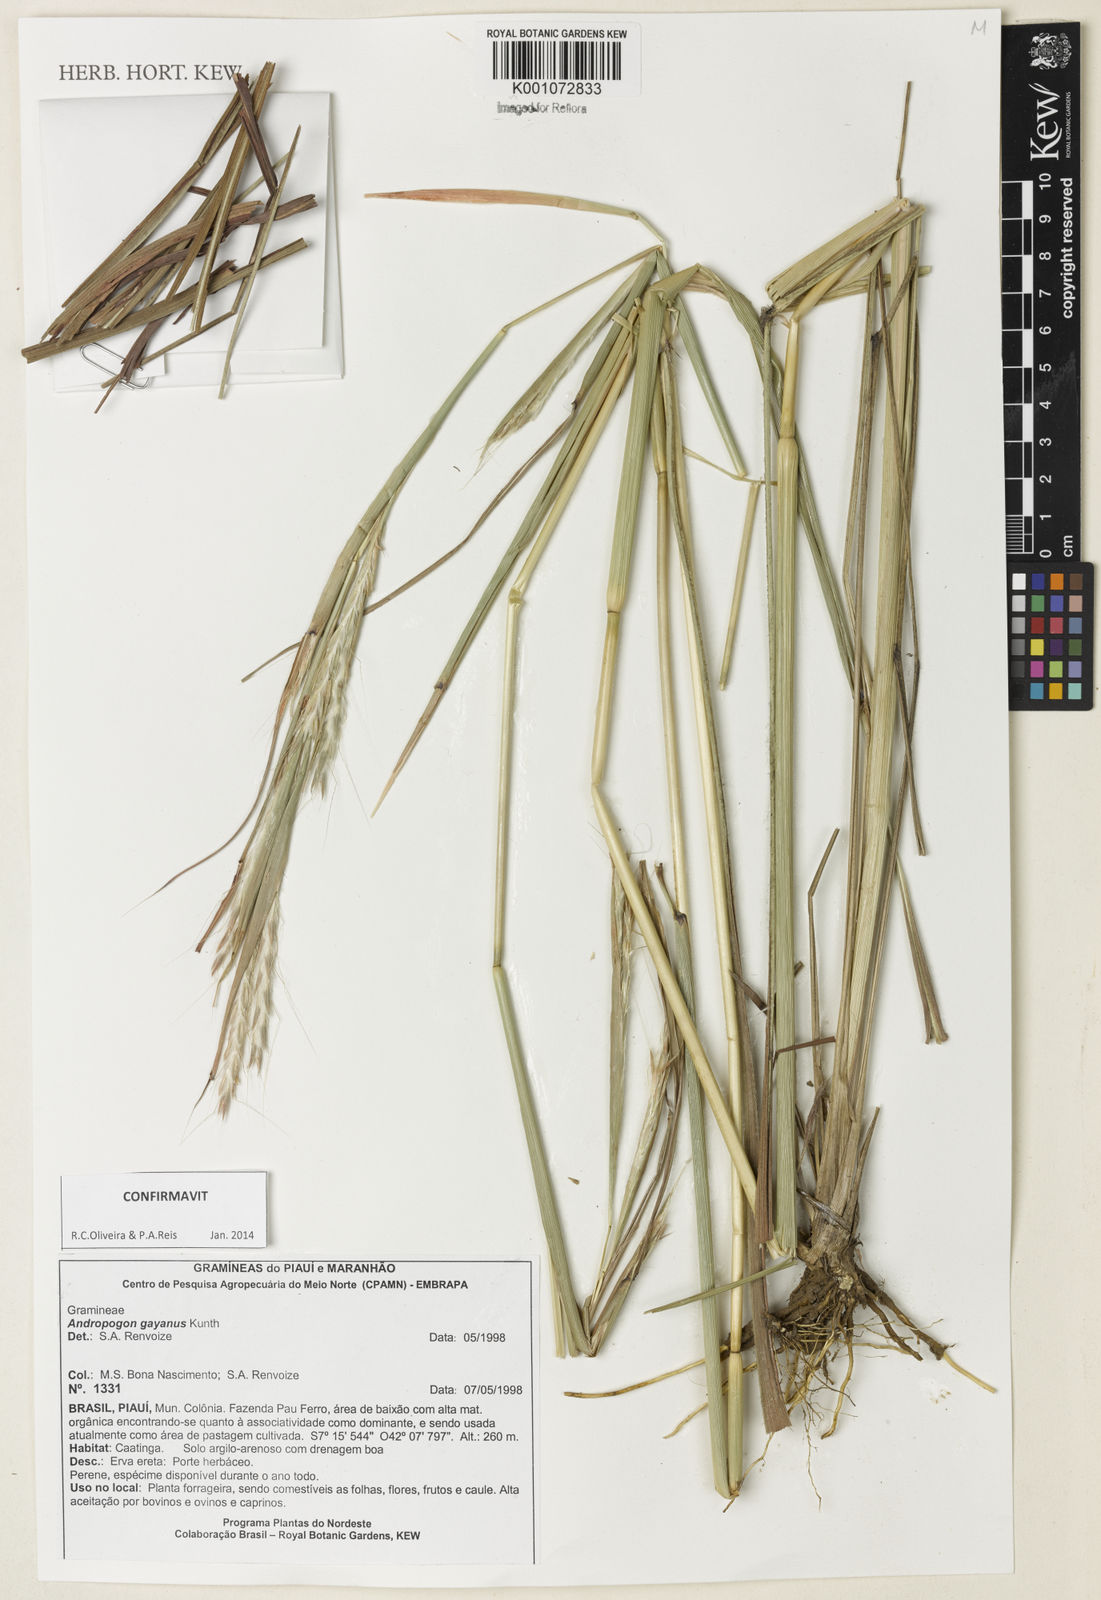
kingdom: Plantae
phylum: Tracheophyta
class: Liliopsida
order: Poales
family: Poaceae
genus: Andropogon
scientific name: Andropogon gayanus
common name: Tambuki grass
